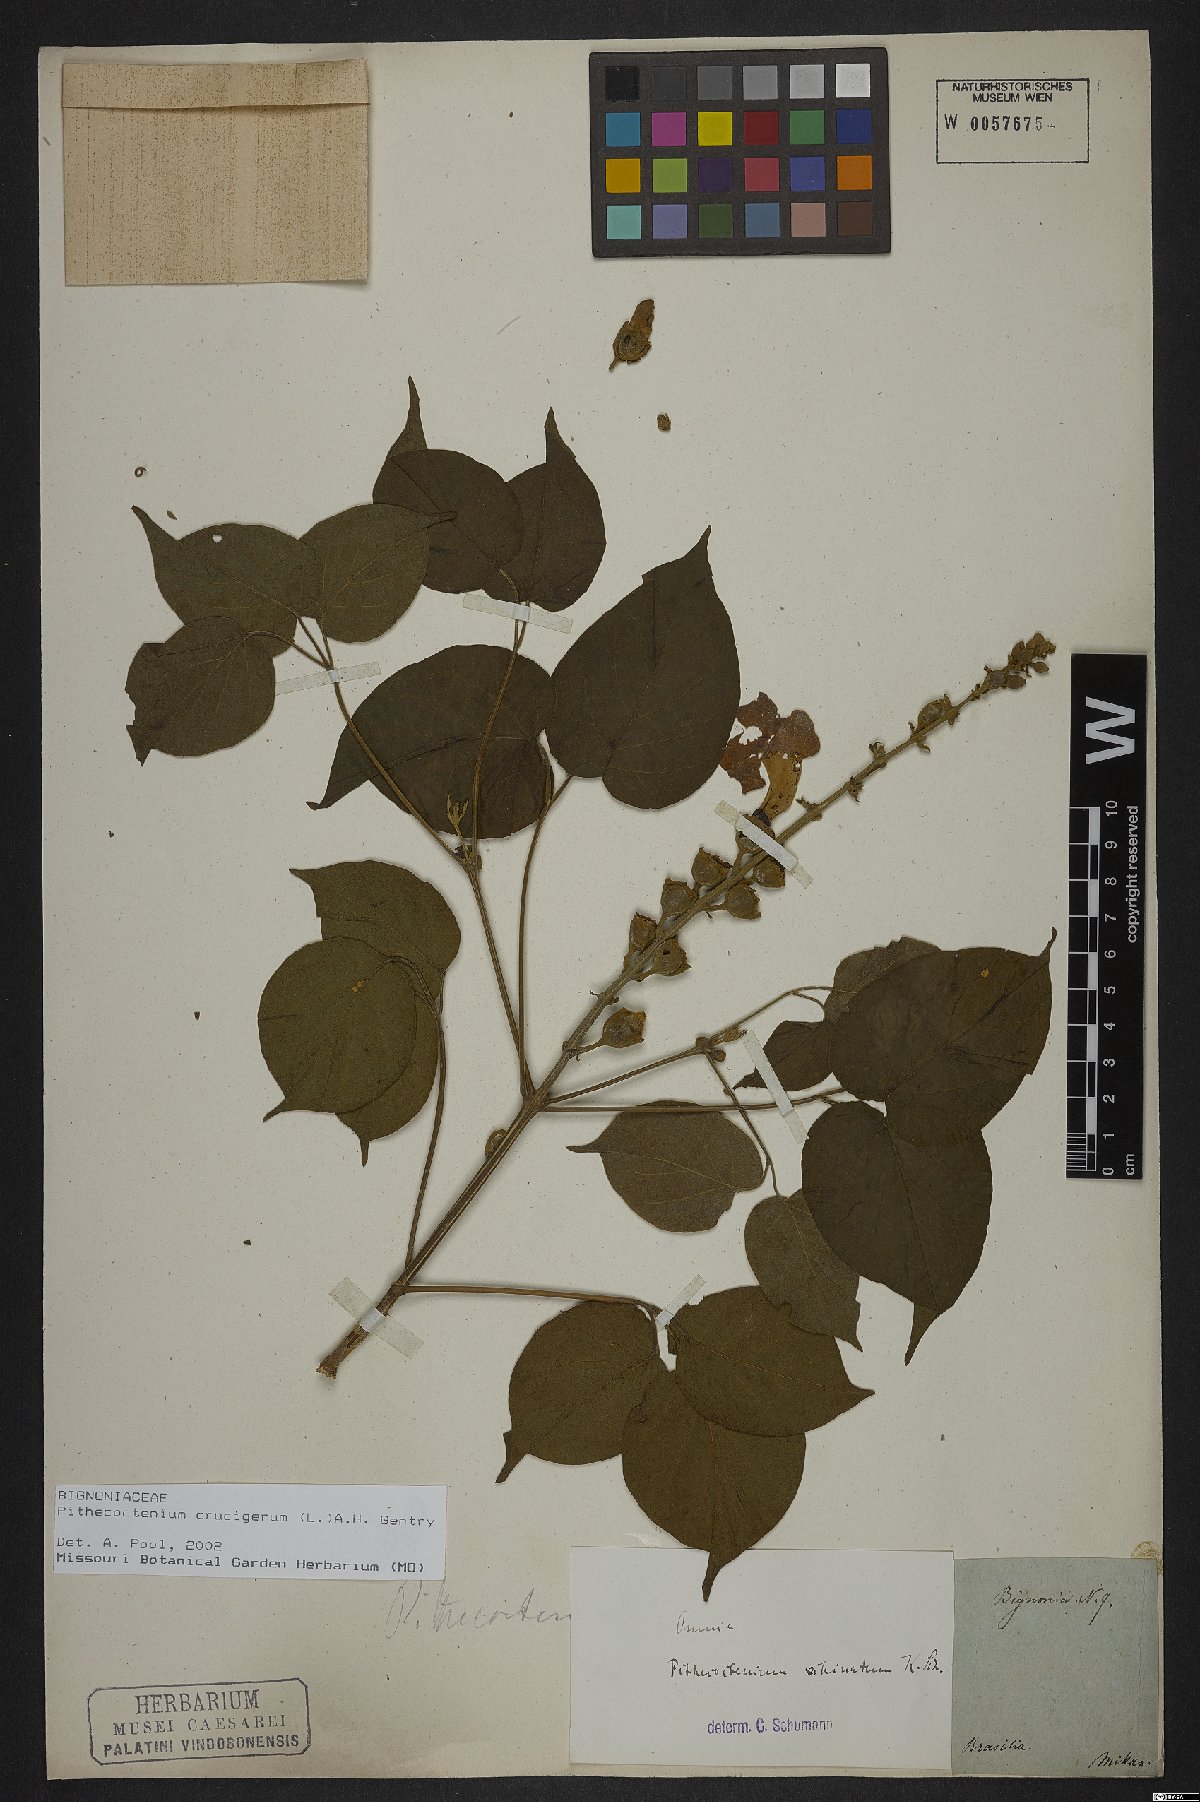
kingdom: Plantae
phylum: Tracheophyta
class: Magnoliopsida
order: Lamiales
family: Bignoniaceae
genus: Amphilophium
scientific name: Amphilophium crucigerum
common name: Monkey comb
